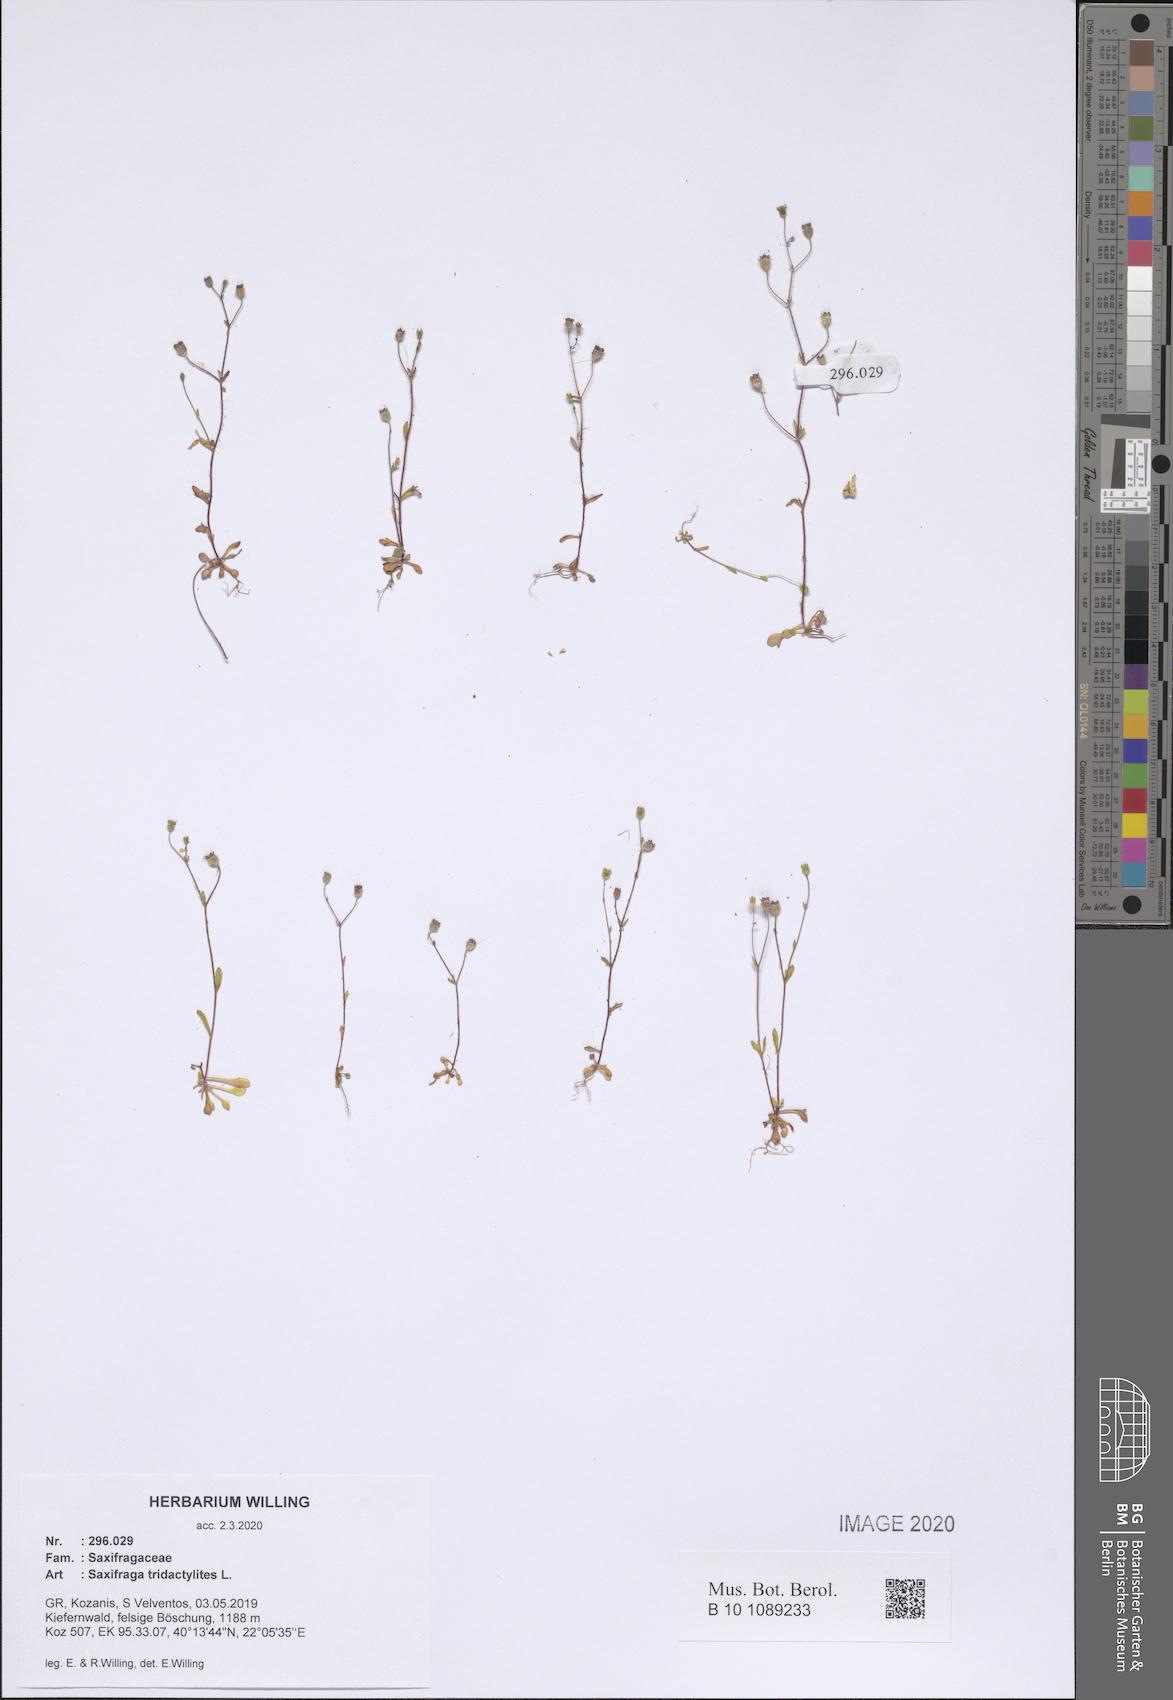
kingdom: Plantae
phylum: Tracheophyta
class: Magnoliopsida
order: Saxifragales
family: Saxifragaceae
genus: Saxifraga
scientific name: Saxifraga tridactylites
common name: Rue-leaved saxifrage
